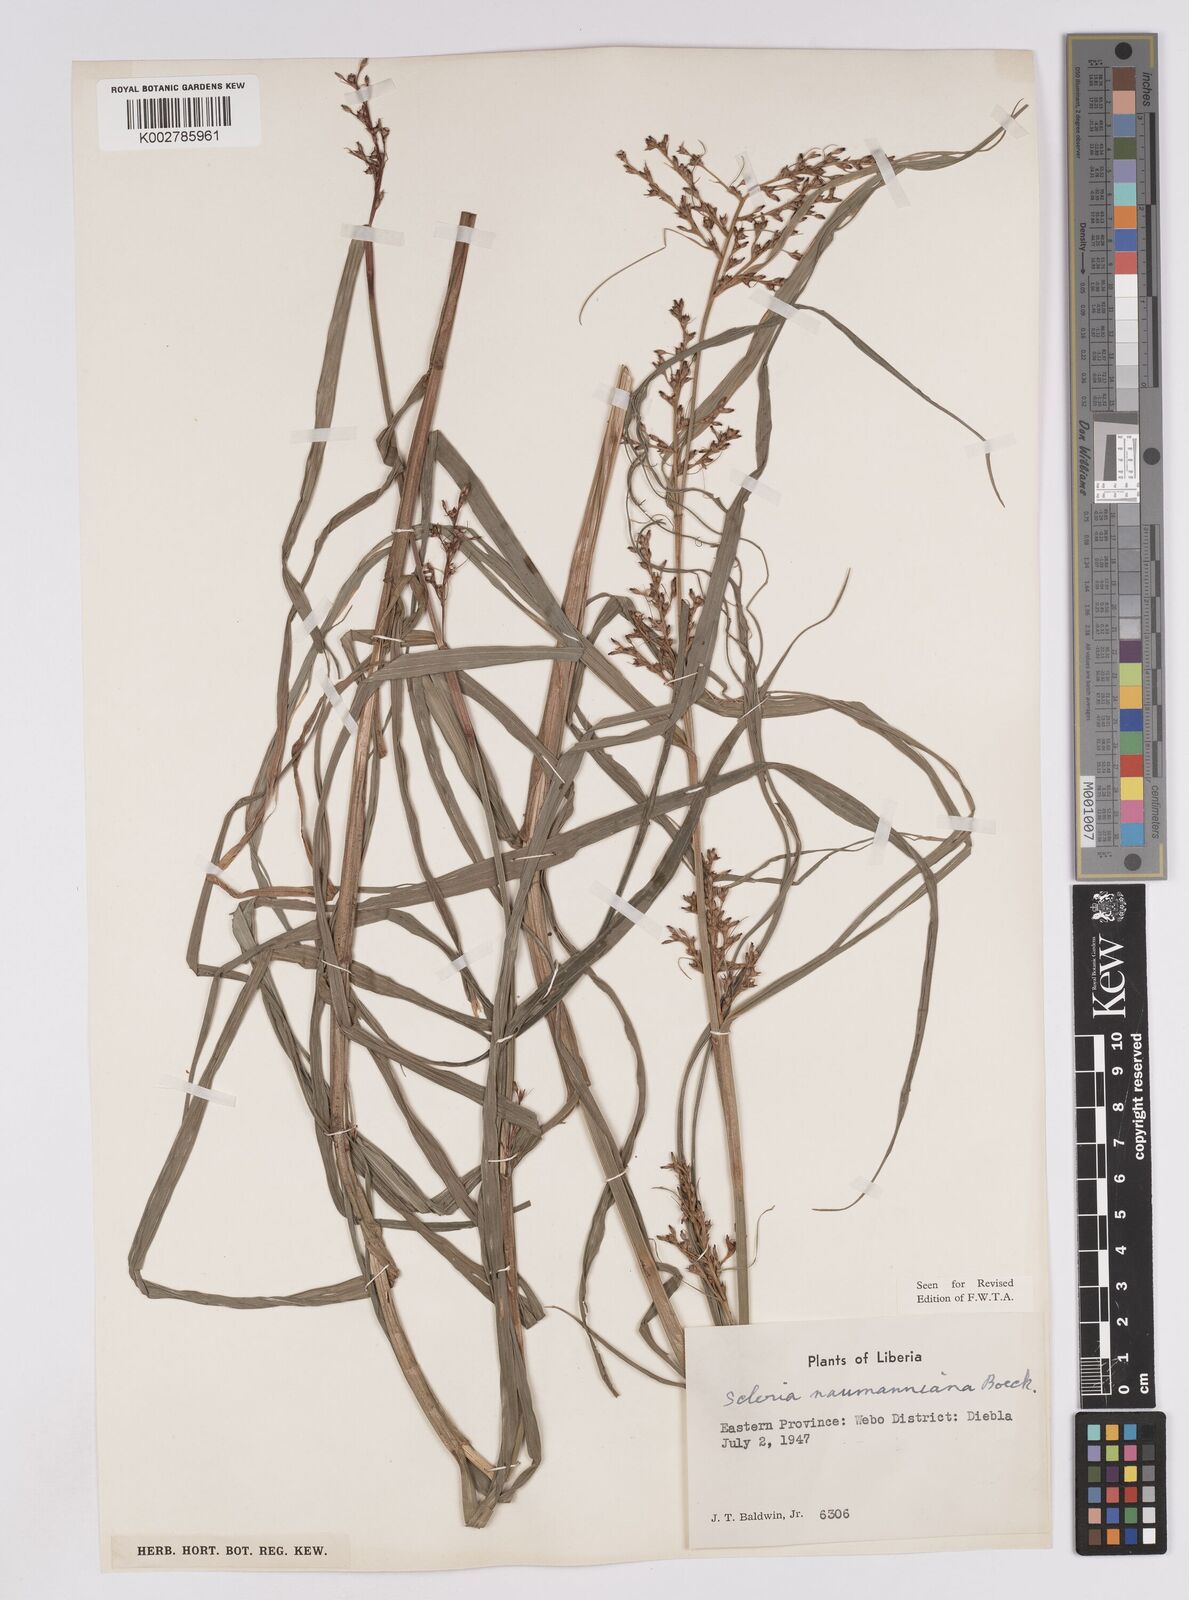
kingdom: Plantae
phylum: Tracheophyta
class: Liliopsida
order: Poales
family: Cyperaceae
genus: Scleria
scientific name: Scleria naumanniana
